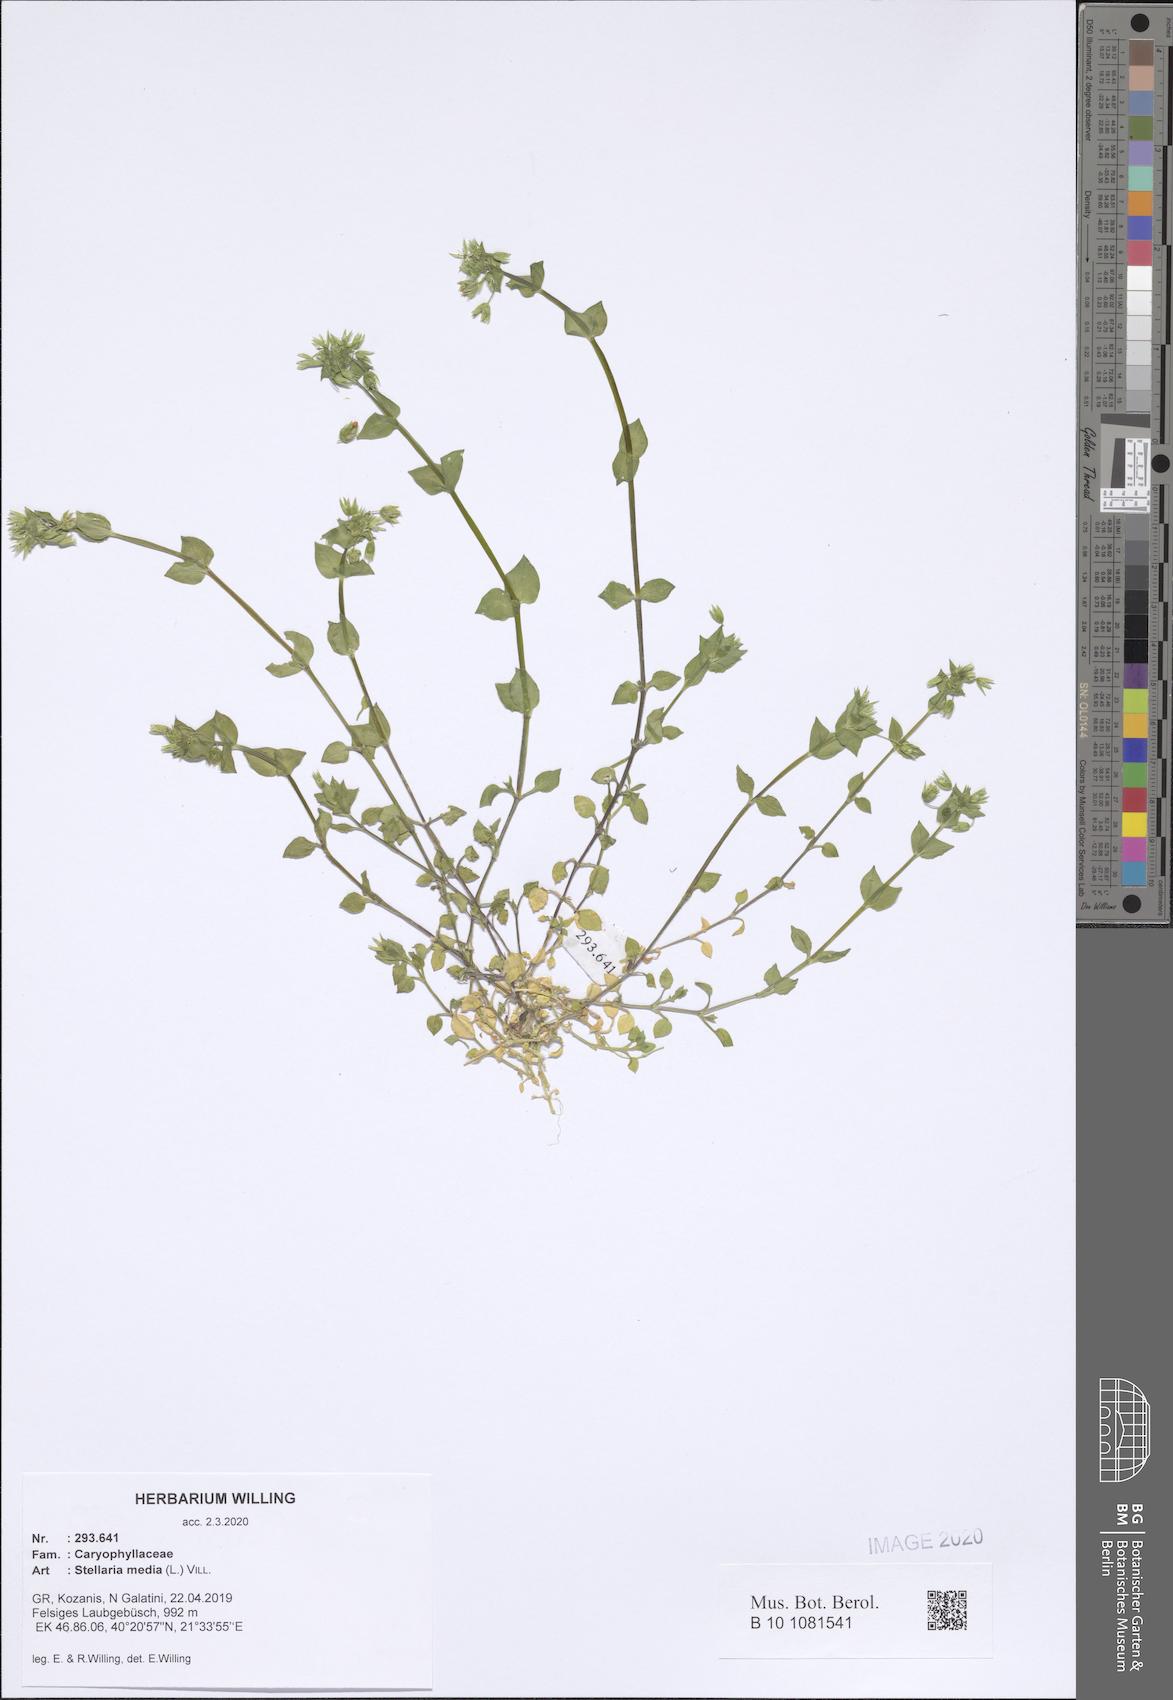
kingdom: Plantae
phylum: Tracheophyta
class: Magnoliopsida
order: Caryophyllales
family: Caryophyllaceae
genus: Stellaria
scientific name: Stellaria media
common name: Common chickweed
